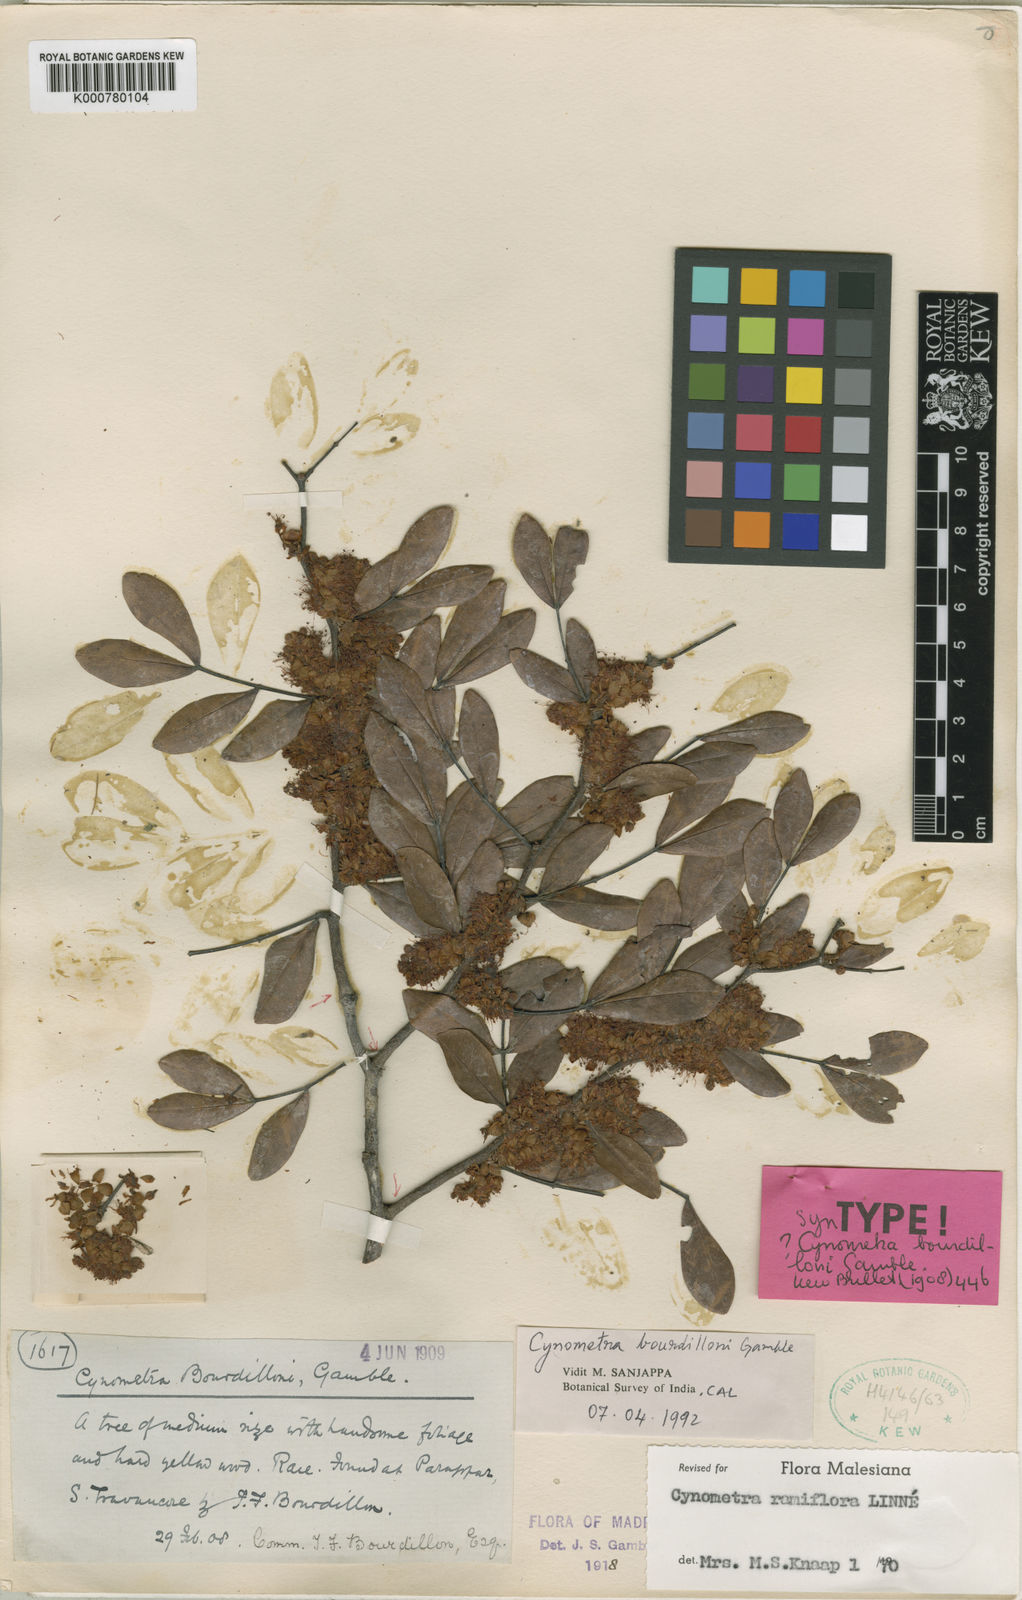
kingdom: Plantae
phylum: Tracheophyta
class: Magnoliopsida
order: Fabales
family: Fabaceae
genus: Cynometra
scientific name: Cynometra bourdillonii
